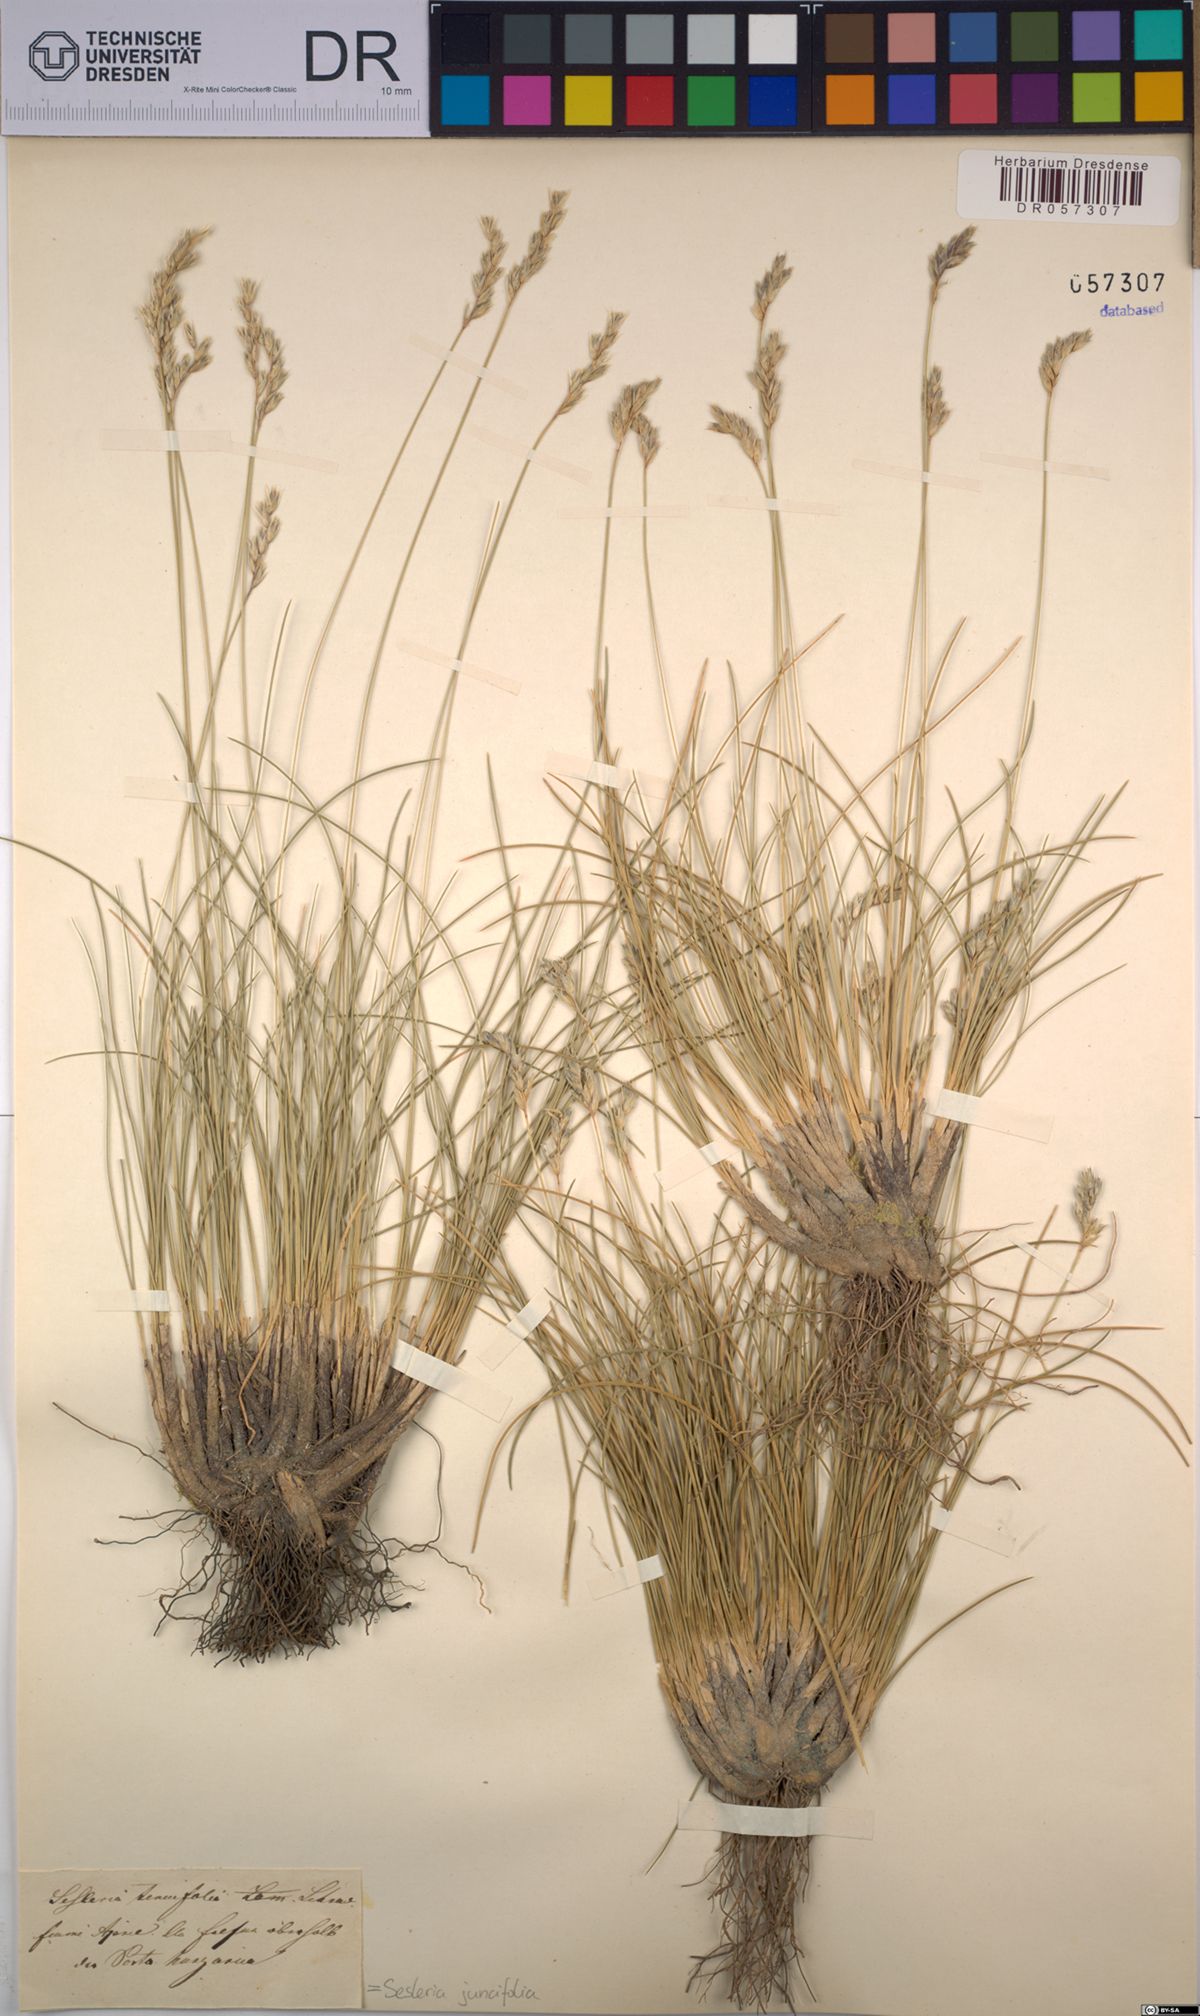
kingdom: Plantae
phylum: Tracheophyta
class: Liliopsida
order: Poales
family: Poaceae
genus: Sesleria
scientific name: Sesleria juncifolia
